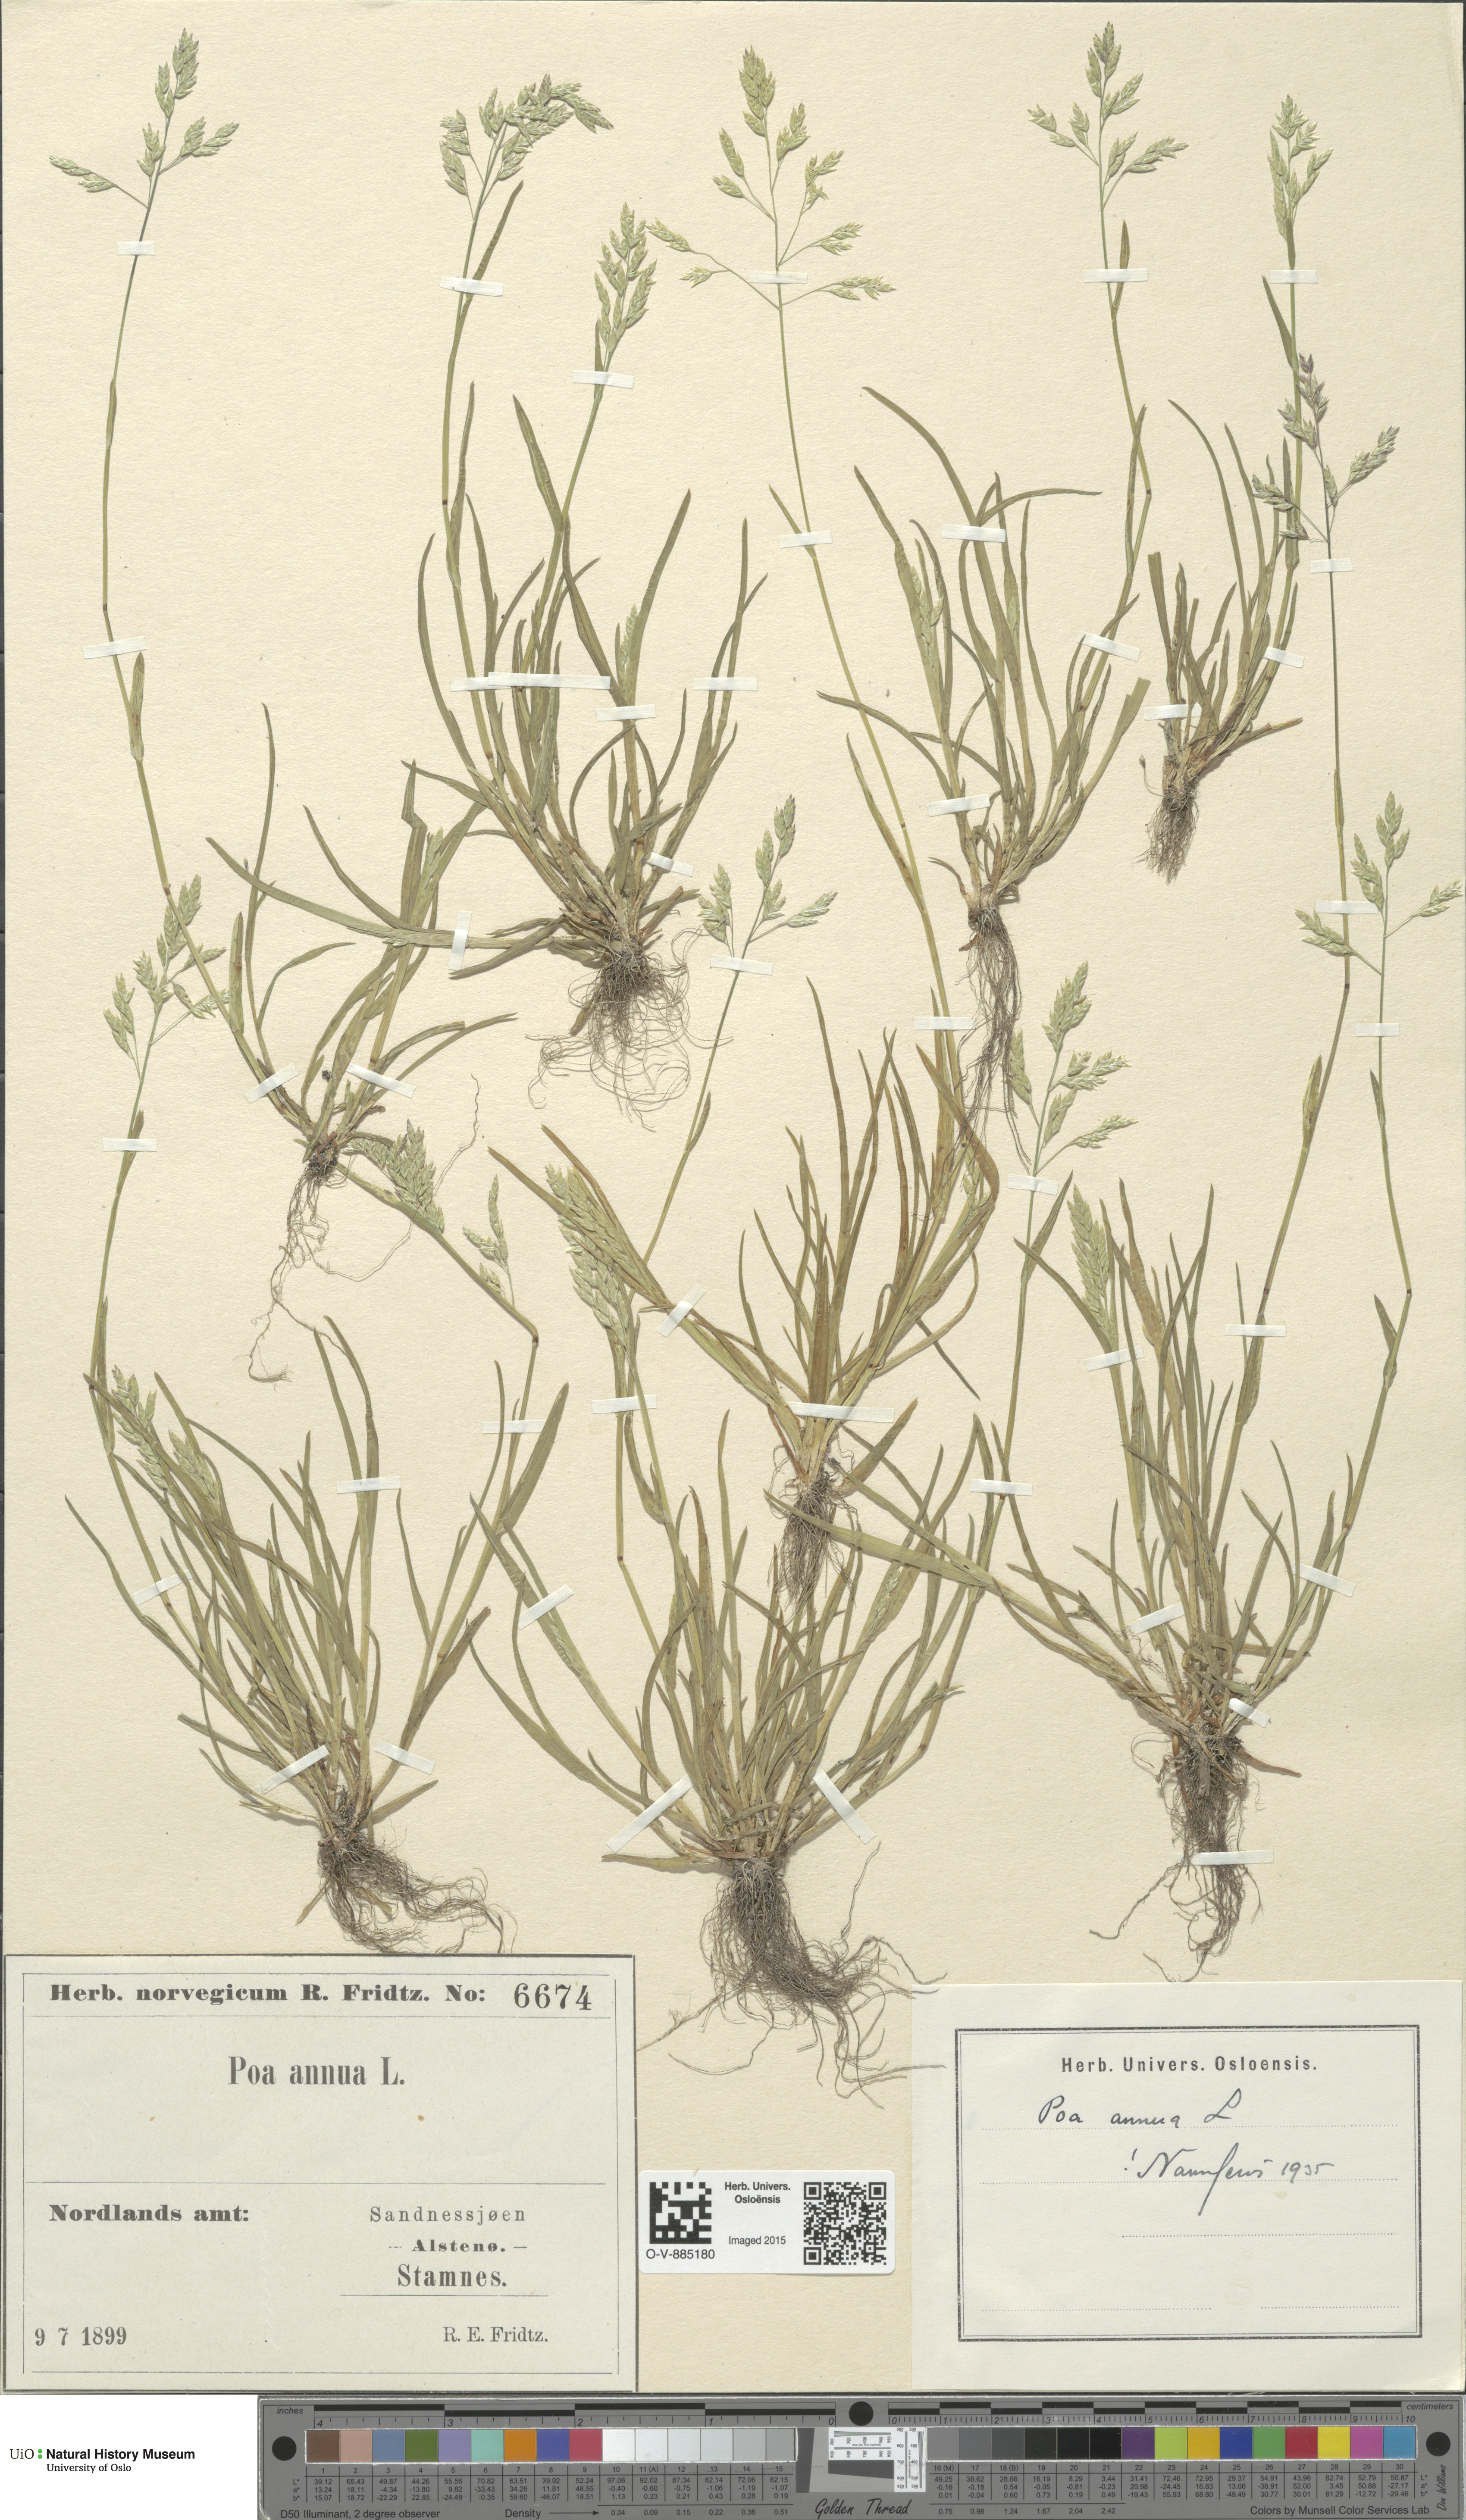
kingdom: Plantae
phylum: Tracheophyta
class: Liliopsida
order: Poales
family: Poaceae
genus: Poa
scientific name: Poa annua
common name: Annual bluegrass
